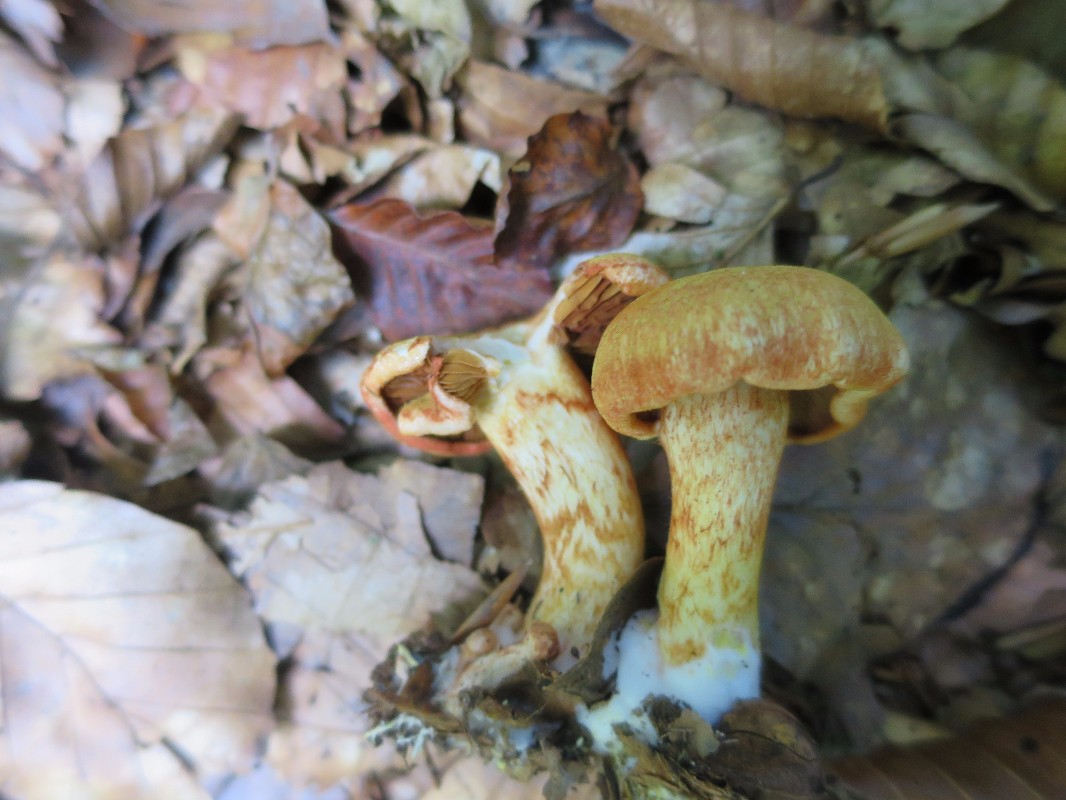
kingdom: Fungi
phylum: Basidiomycota
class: Agaricomycetes
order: Agaricales
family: Cortinariaceae
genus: Cortinarius
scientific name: Cortinarius bolaris
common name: cinnoberskællet slørhat
